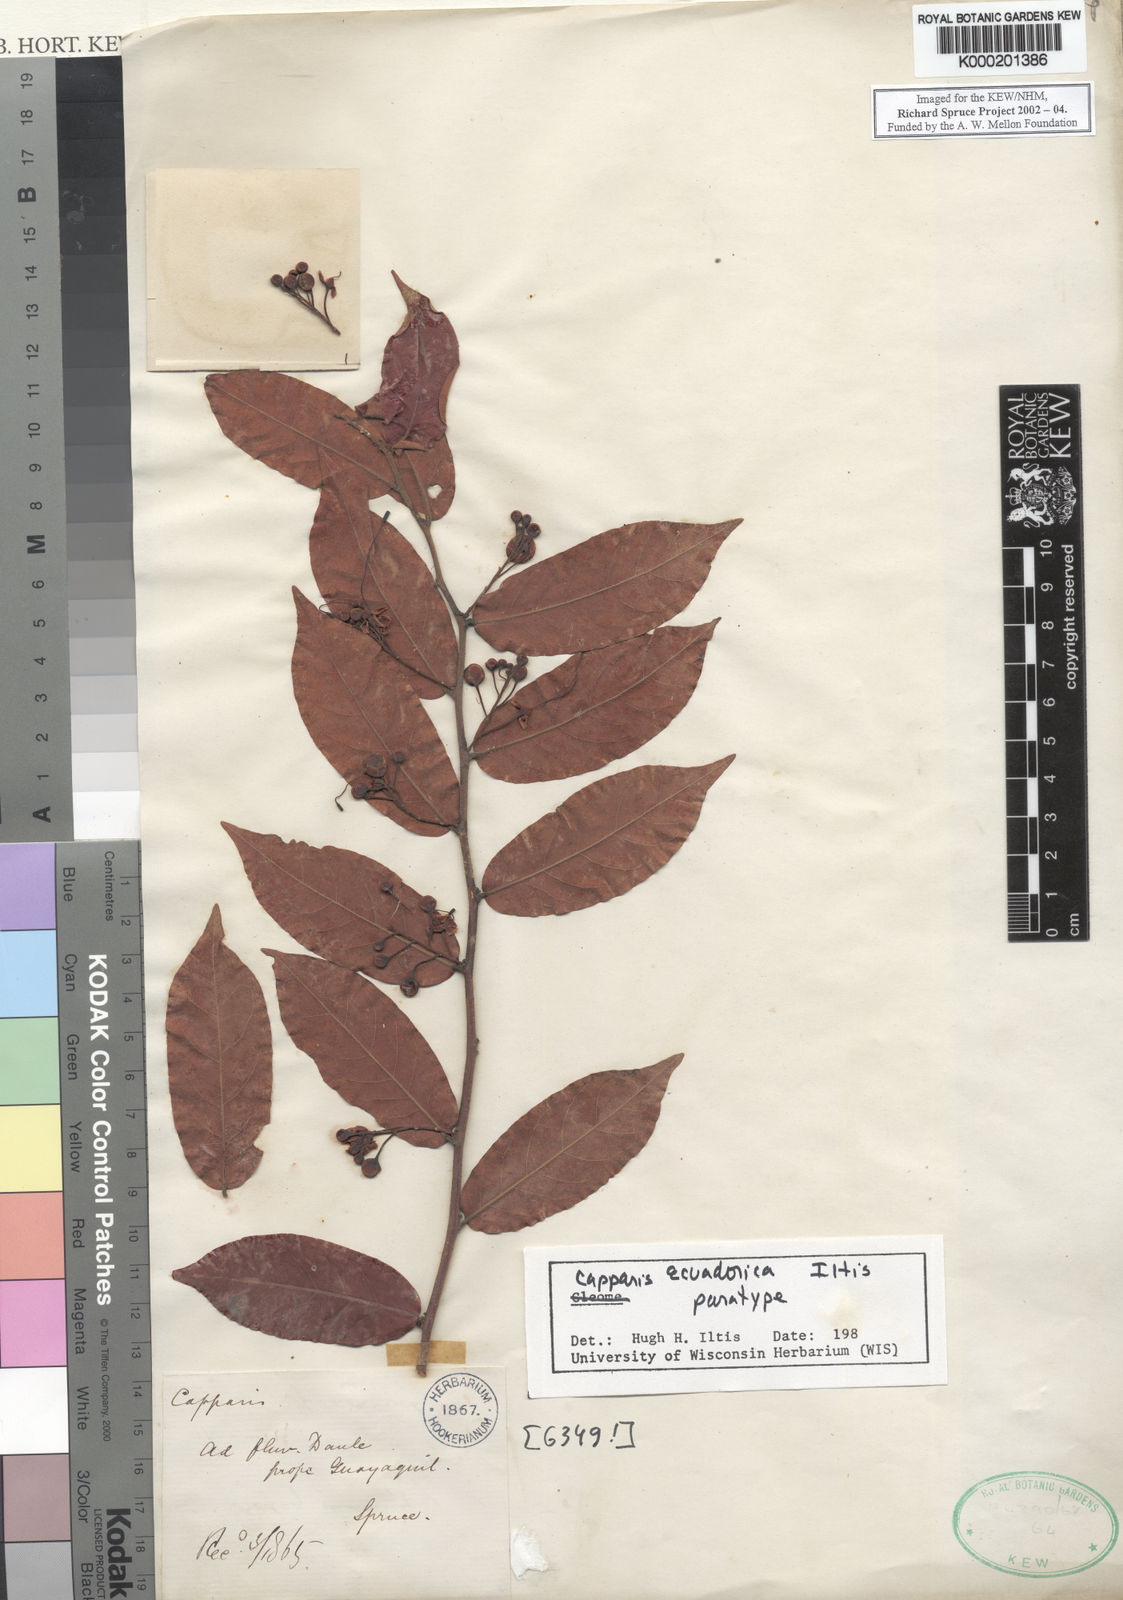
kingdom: Plantae
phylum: Tracheophyta
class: Magnoliopsida
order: Brassicales
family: Capparaceae
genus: Cynophalla
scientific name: Cynophalla ecuadorica
